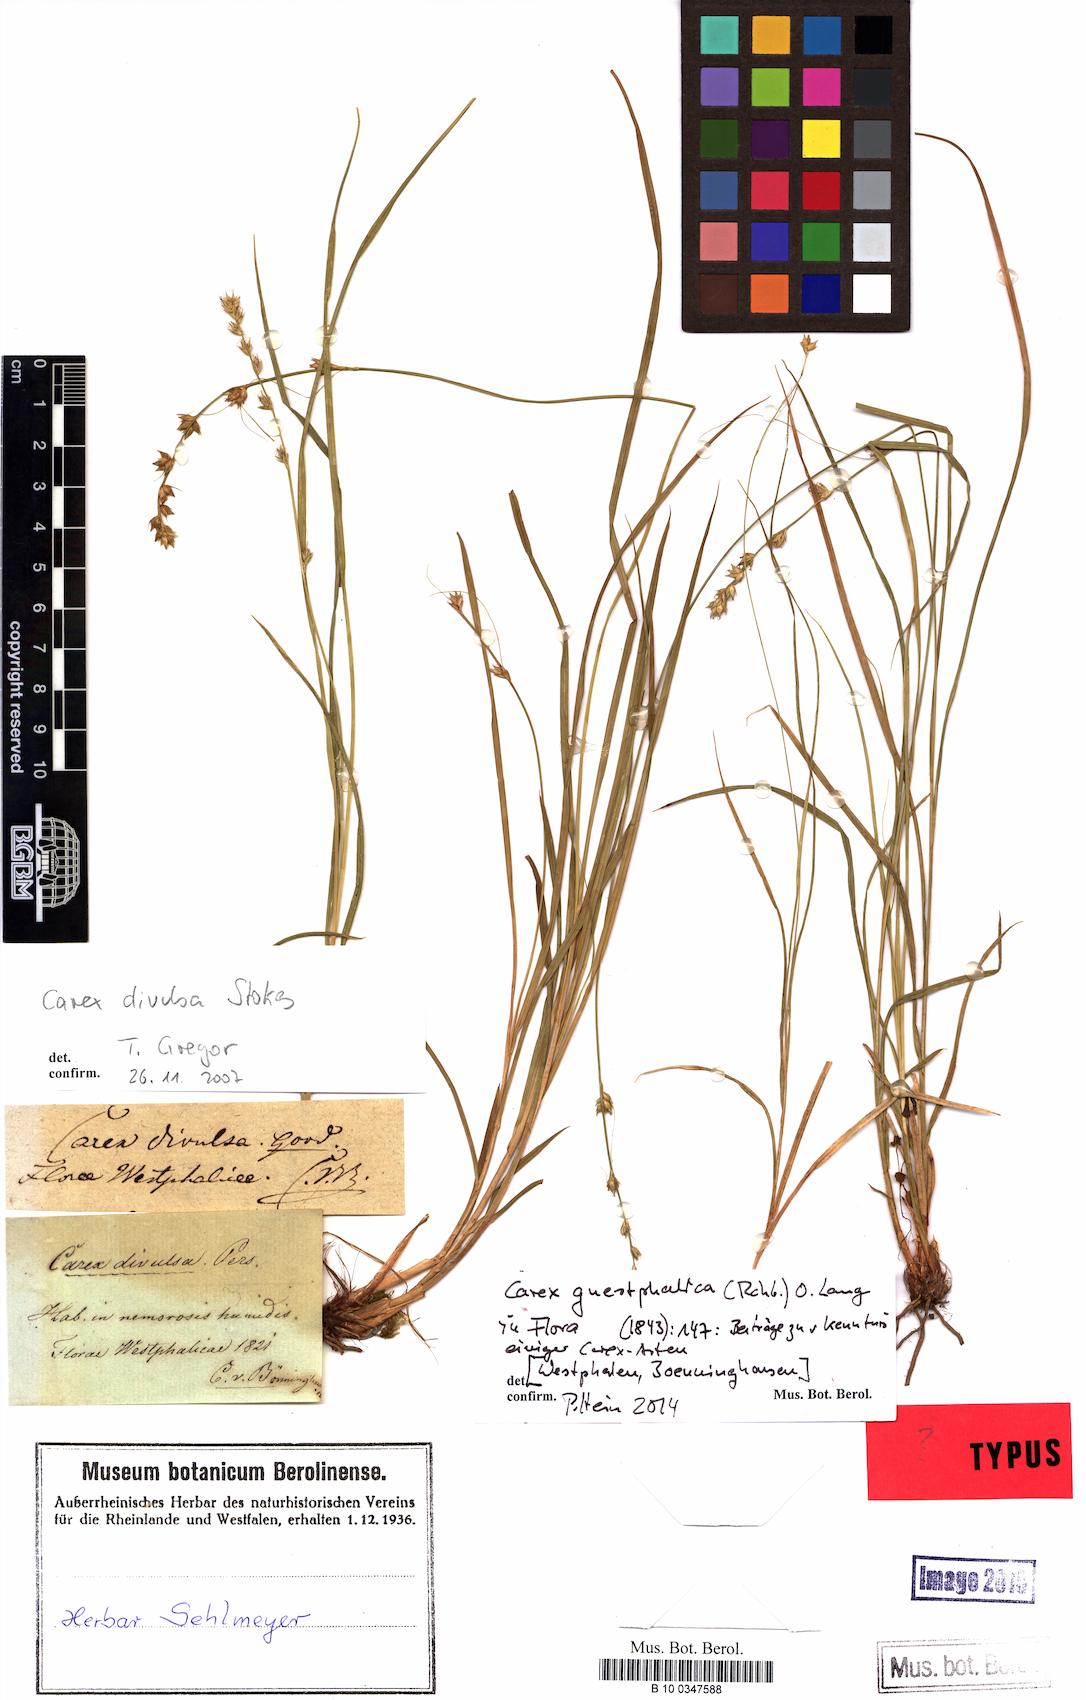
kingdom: Plantae
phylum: Tracheophyta
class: Liliopsida
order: Poales
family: Cyperaceae
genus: Carex
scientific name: Carex divulsa
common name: Grassland sedge
